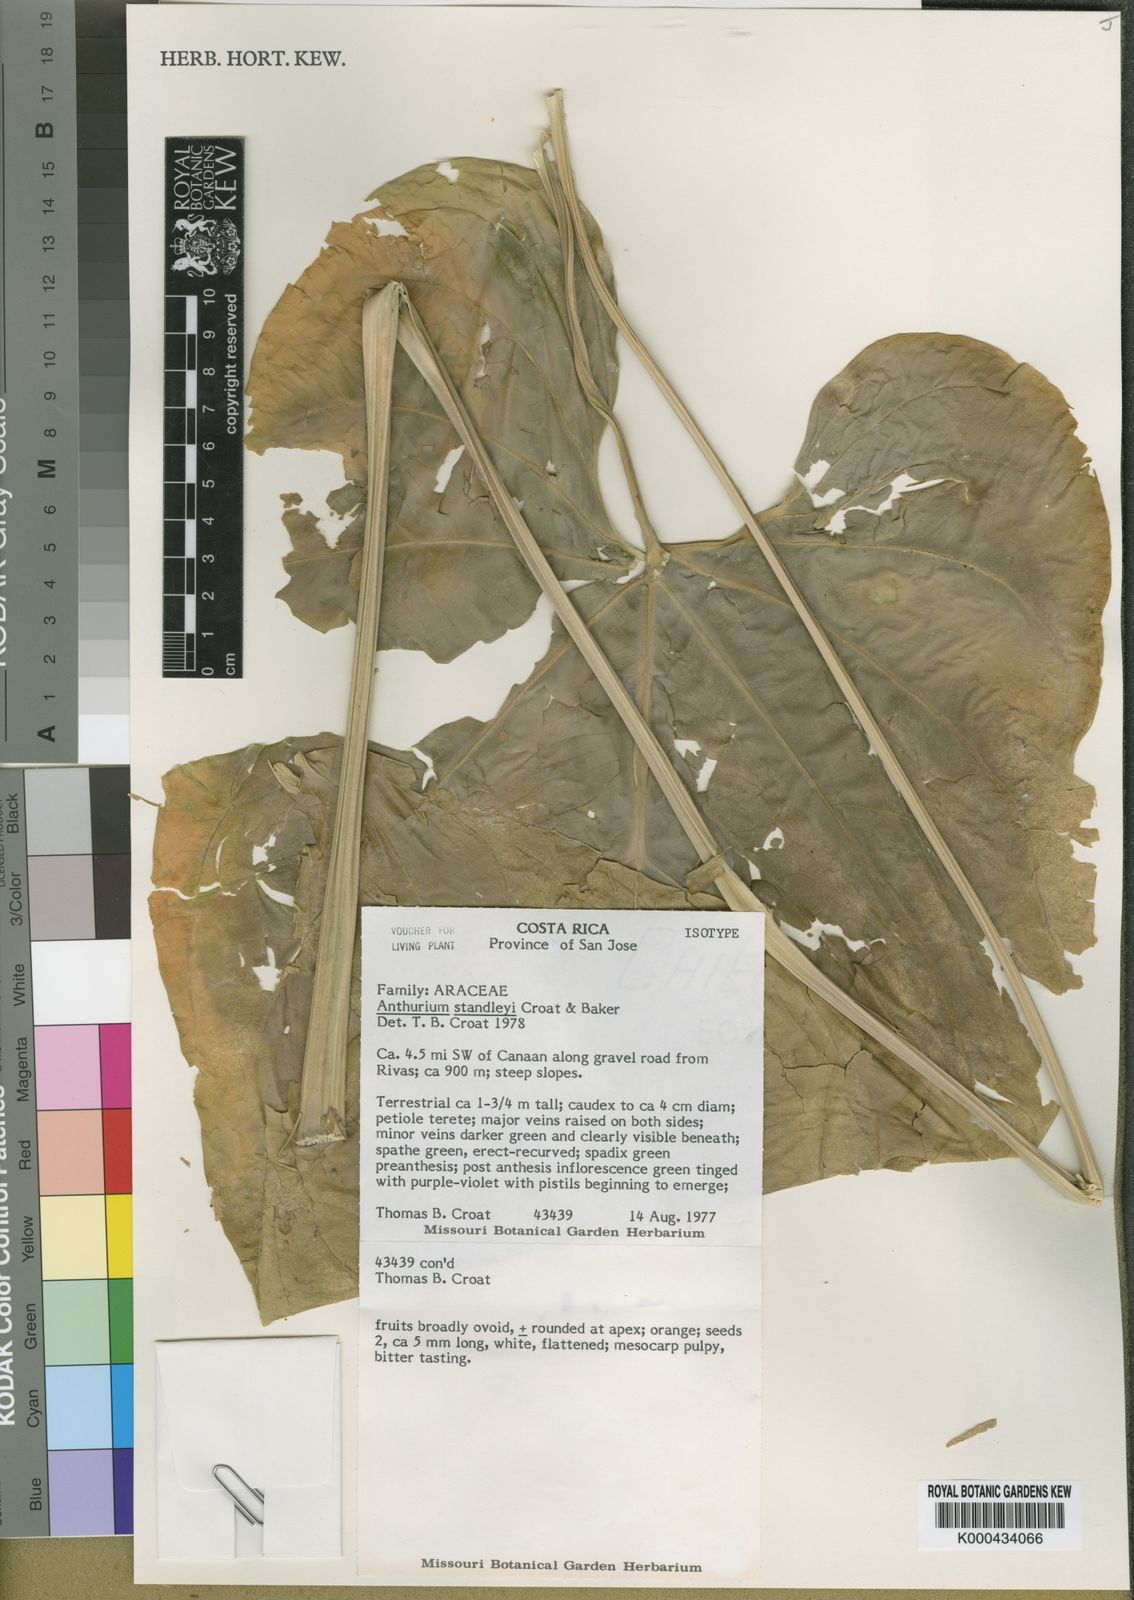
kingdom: Plantae
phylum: Tracheophyta
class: Liliopsida
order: Alismatales
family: Araceae
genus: Anthurium
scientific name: Anthurium standleyi
